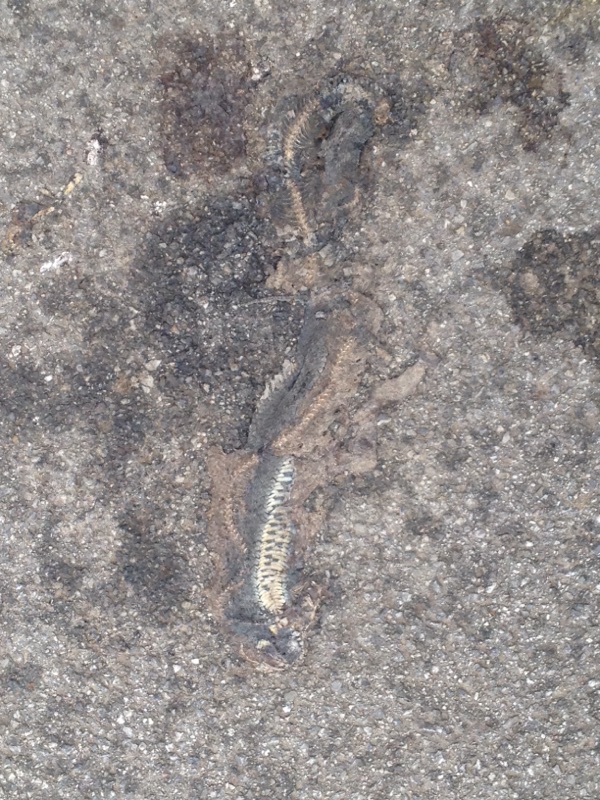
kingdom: Animalia
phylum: Chordata
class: Squamata
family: Colubridae
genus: Natrix
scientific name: Natrix natrix
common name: Grass snake
